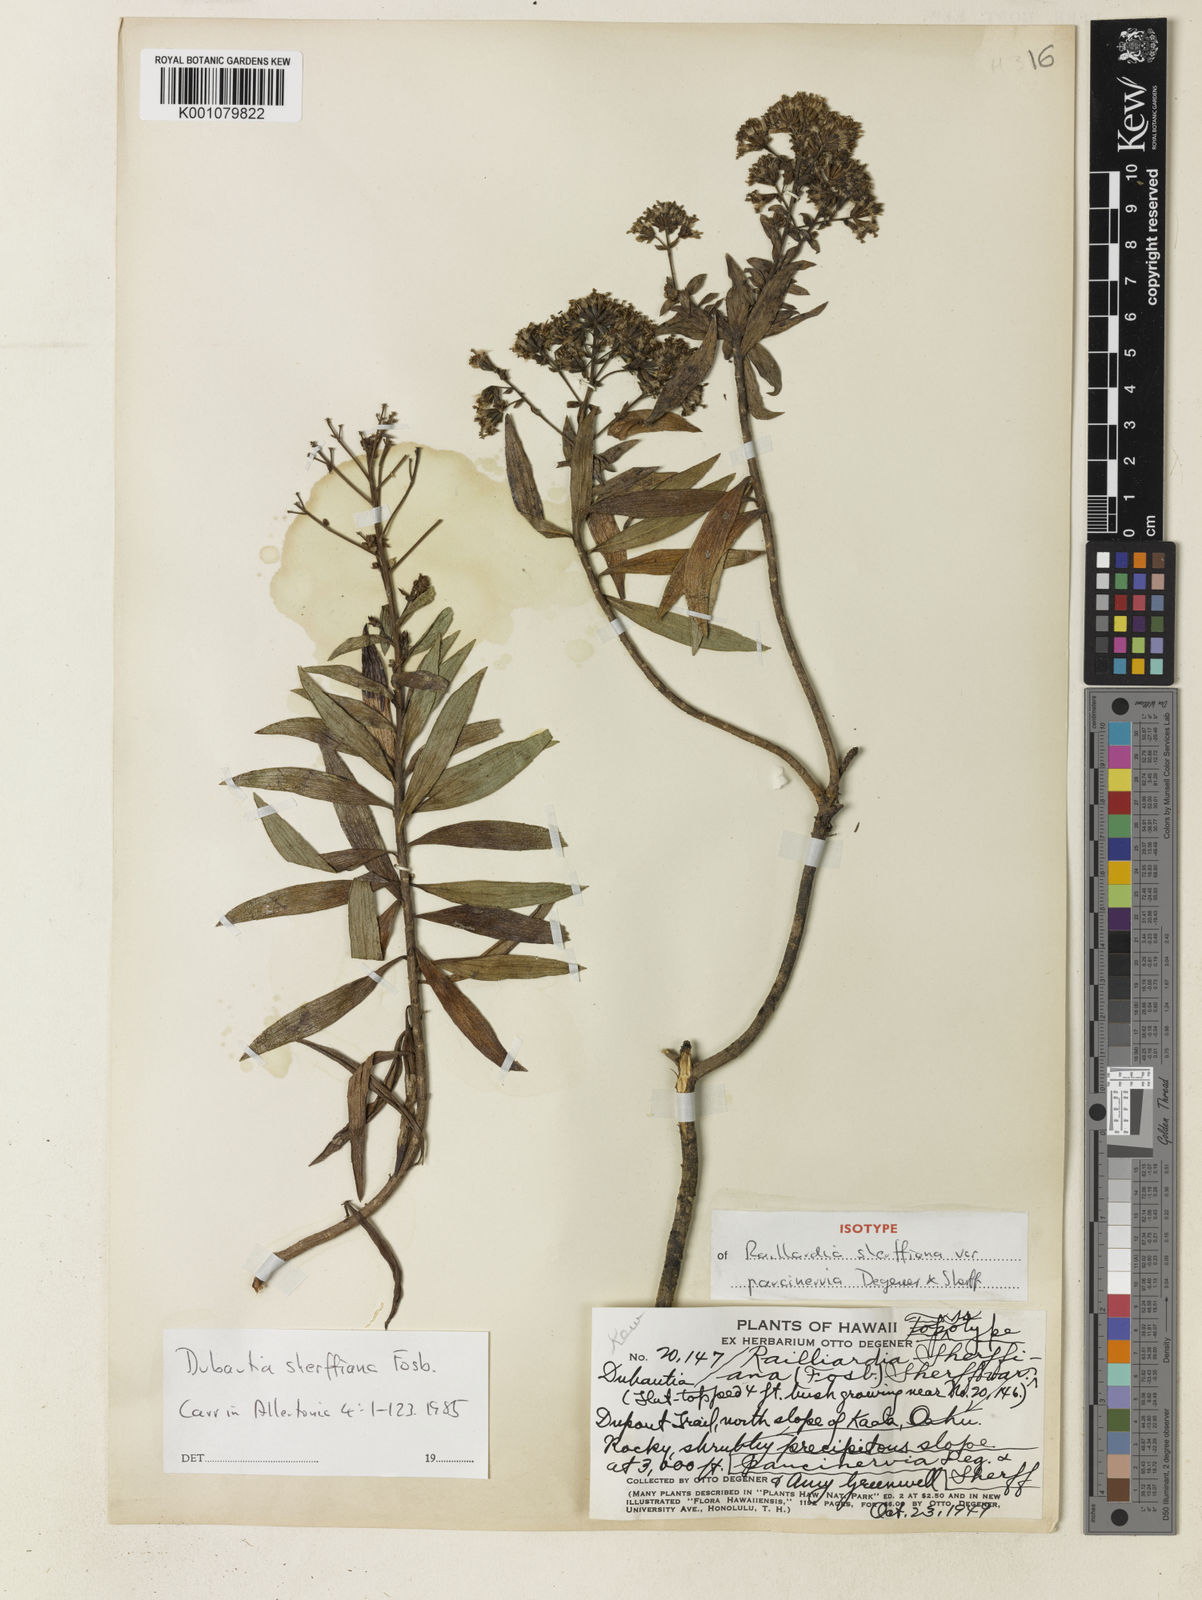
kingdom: Plantae
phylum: Tracheophyta
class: Magnoliopsida
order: Asterales
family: Asteraceae
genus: Dubautia
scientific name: Dubautia sherffiana
